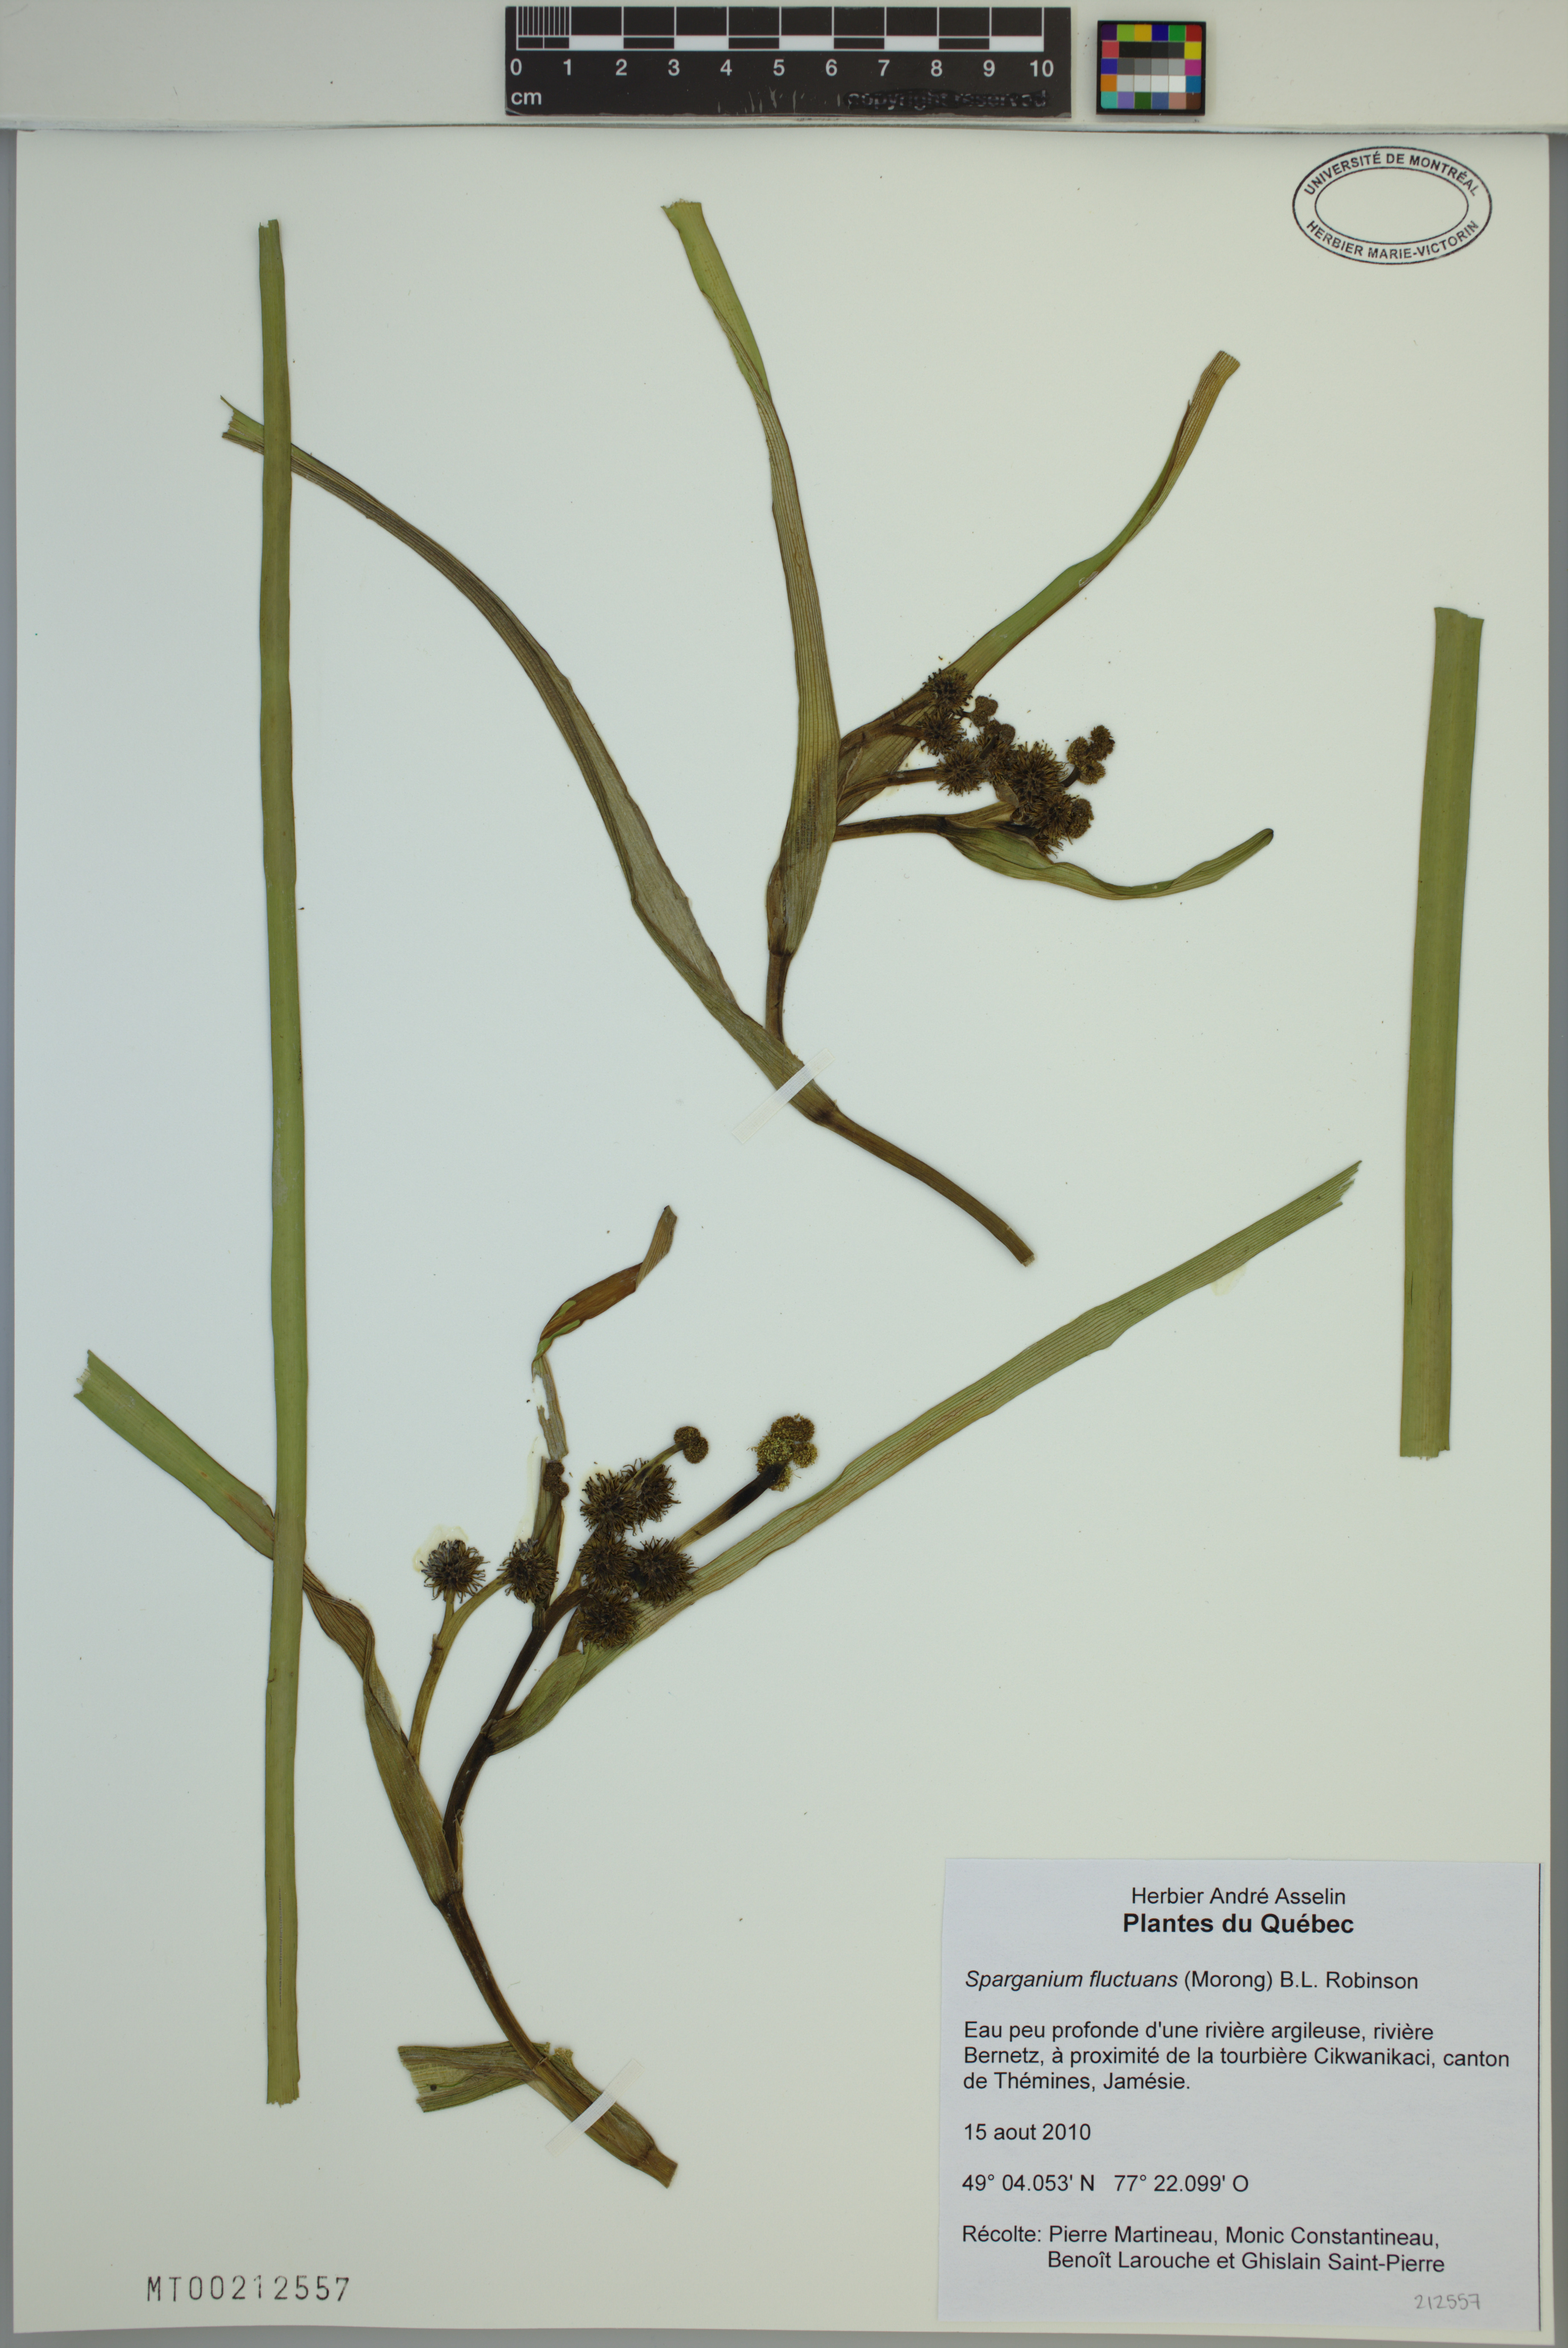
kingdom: Plantae
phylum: Tracheophyta
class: Liliopsida
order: Poales
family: Typhaceae
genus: Sparganium
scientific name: Sparganium fluctuans
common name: Floating burreed
